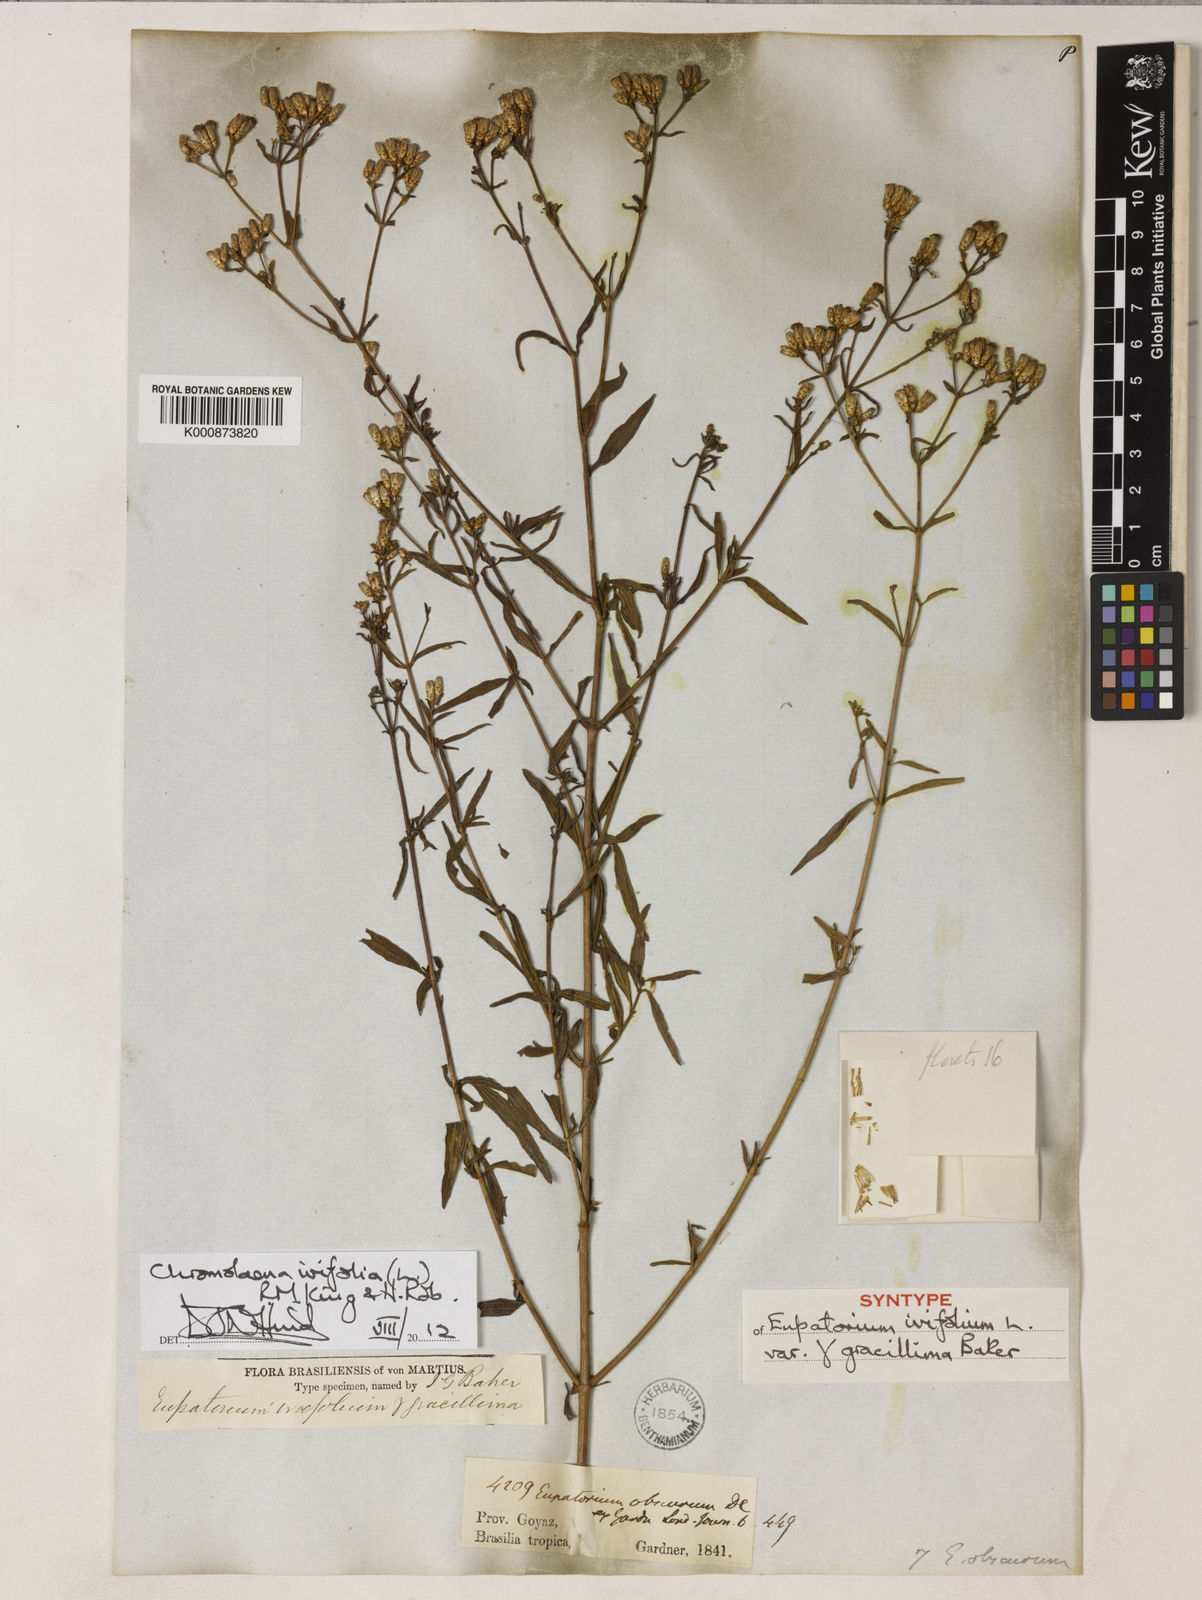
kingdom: Plantae
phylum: Tracheophyta
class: Magnoliopsida
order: Asterales
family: Asteraceae
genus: Chromolaena
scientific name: Chromolaena ivifolia
